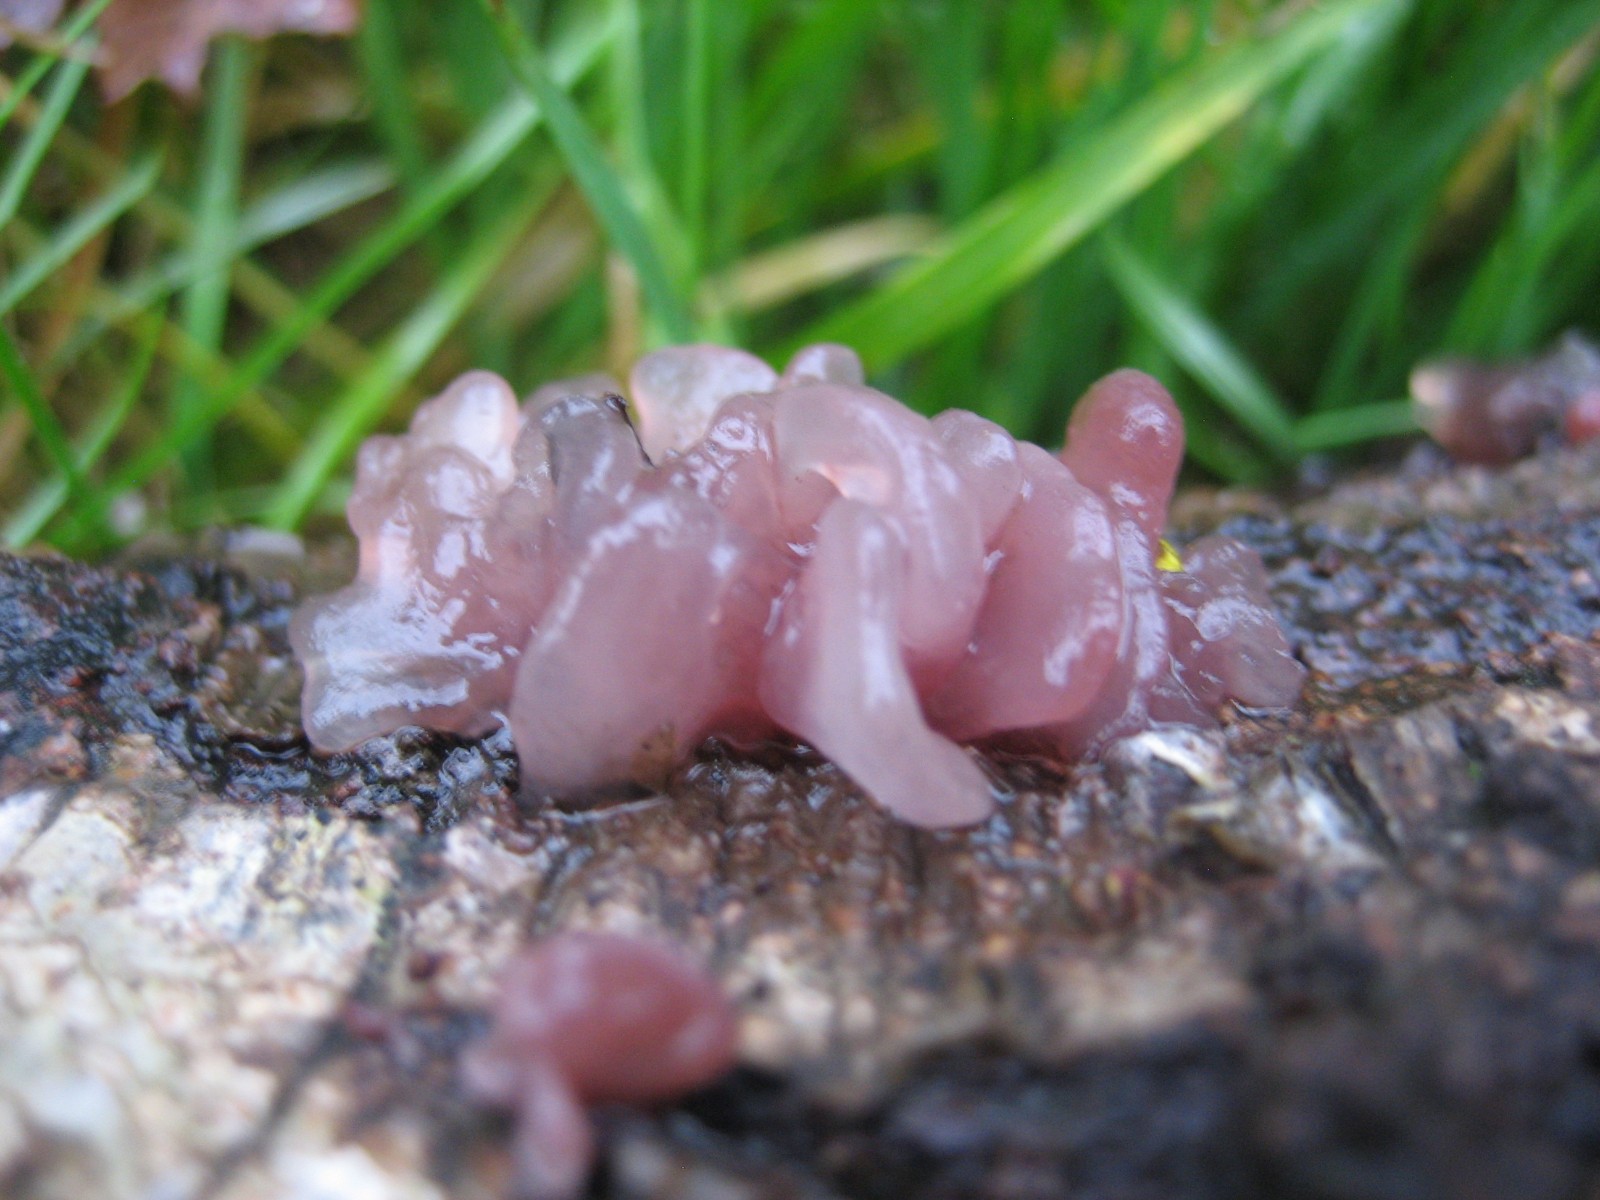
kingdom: Fungi
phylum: Ascomycota
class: Leotiomycetes
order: Helotiales
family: Gelatinodiscaceae
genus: Ascocoryne
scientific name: Ascocoryne sarcoides
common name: rødlilla sejskive
